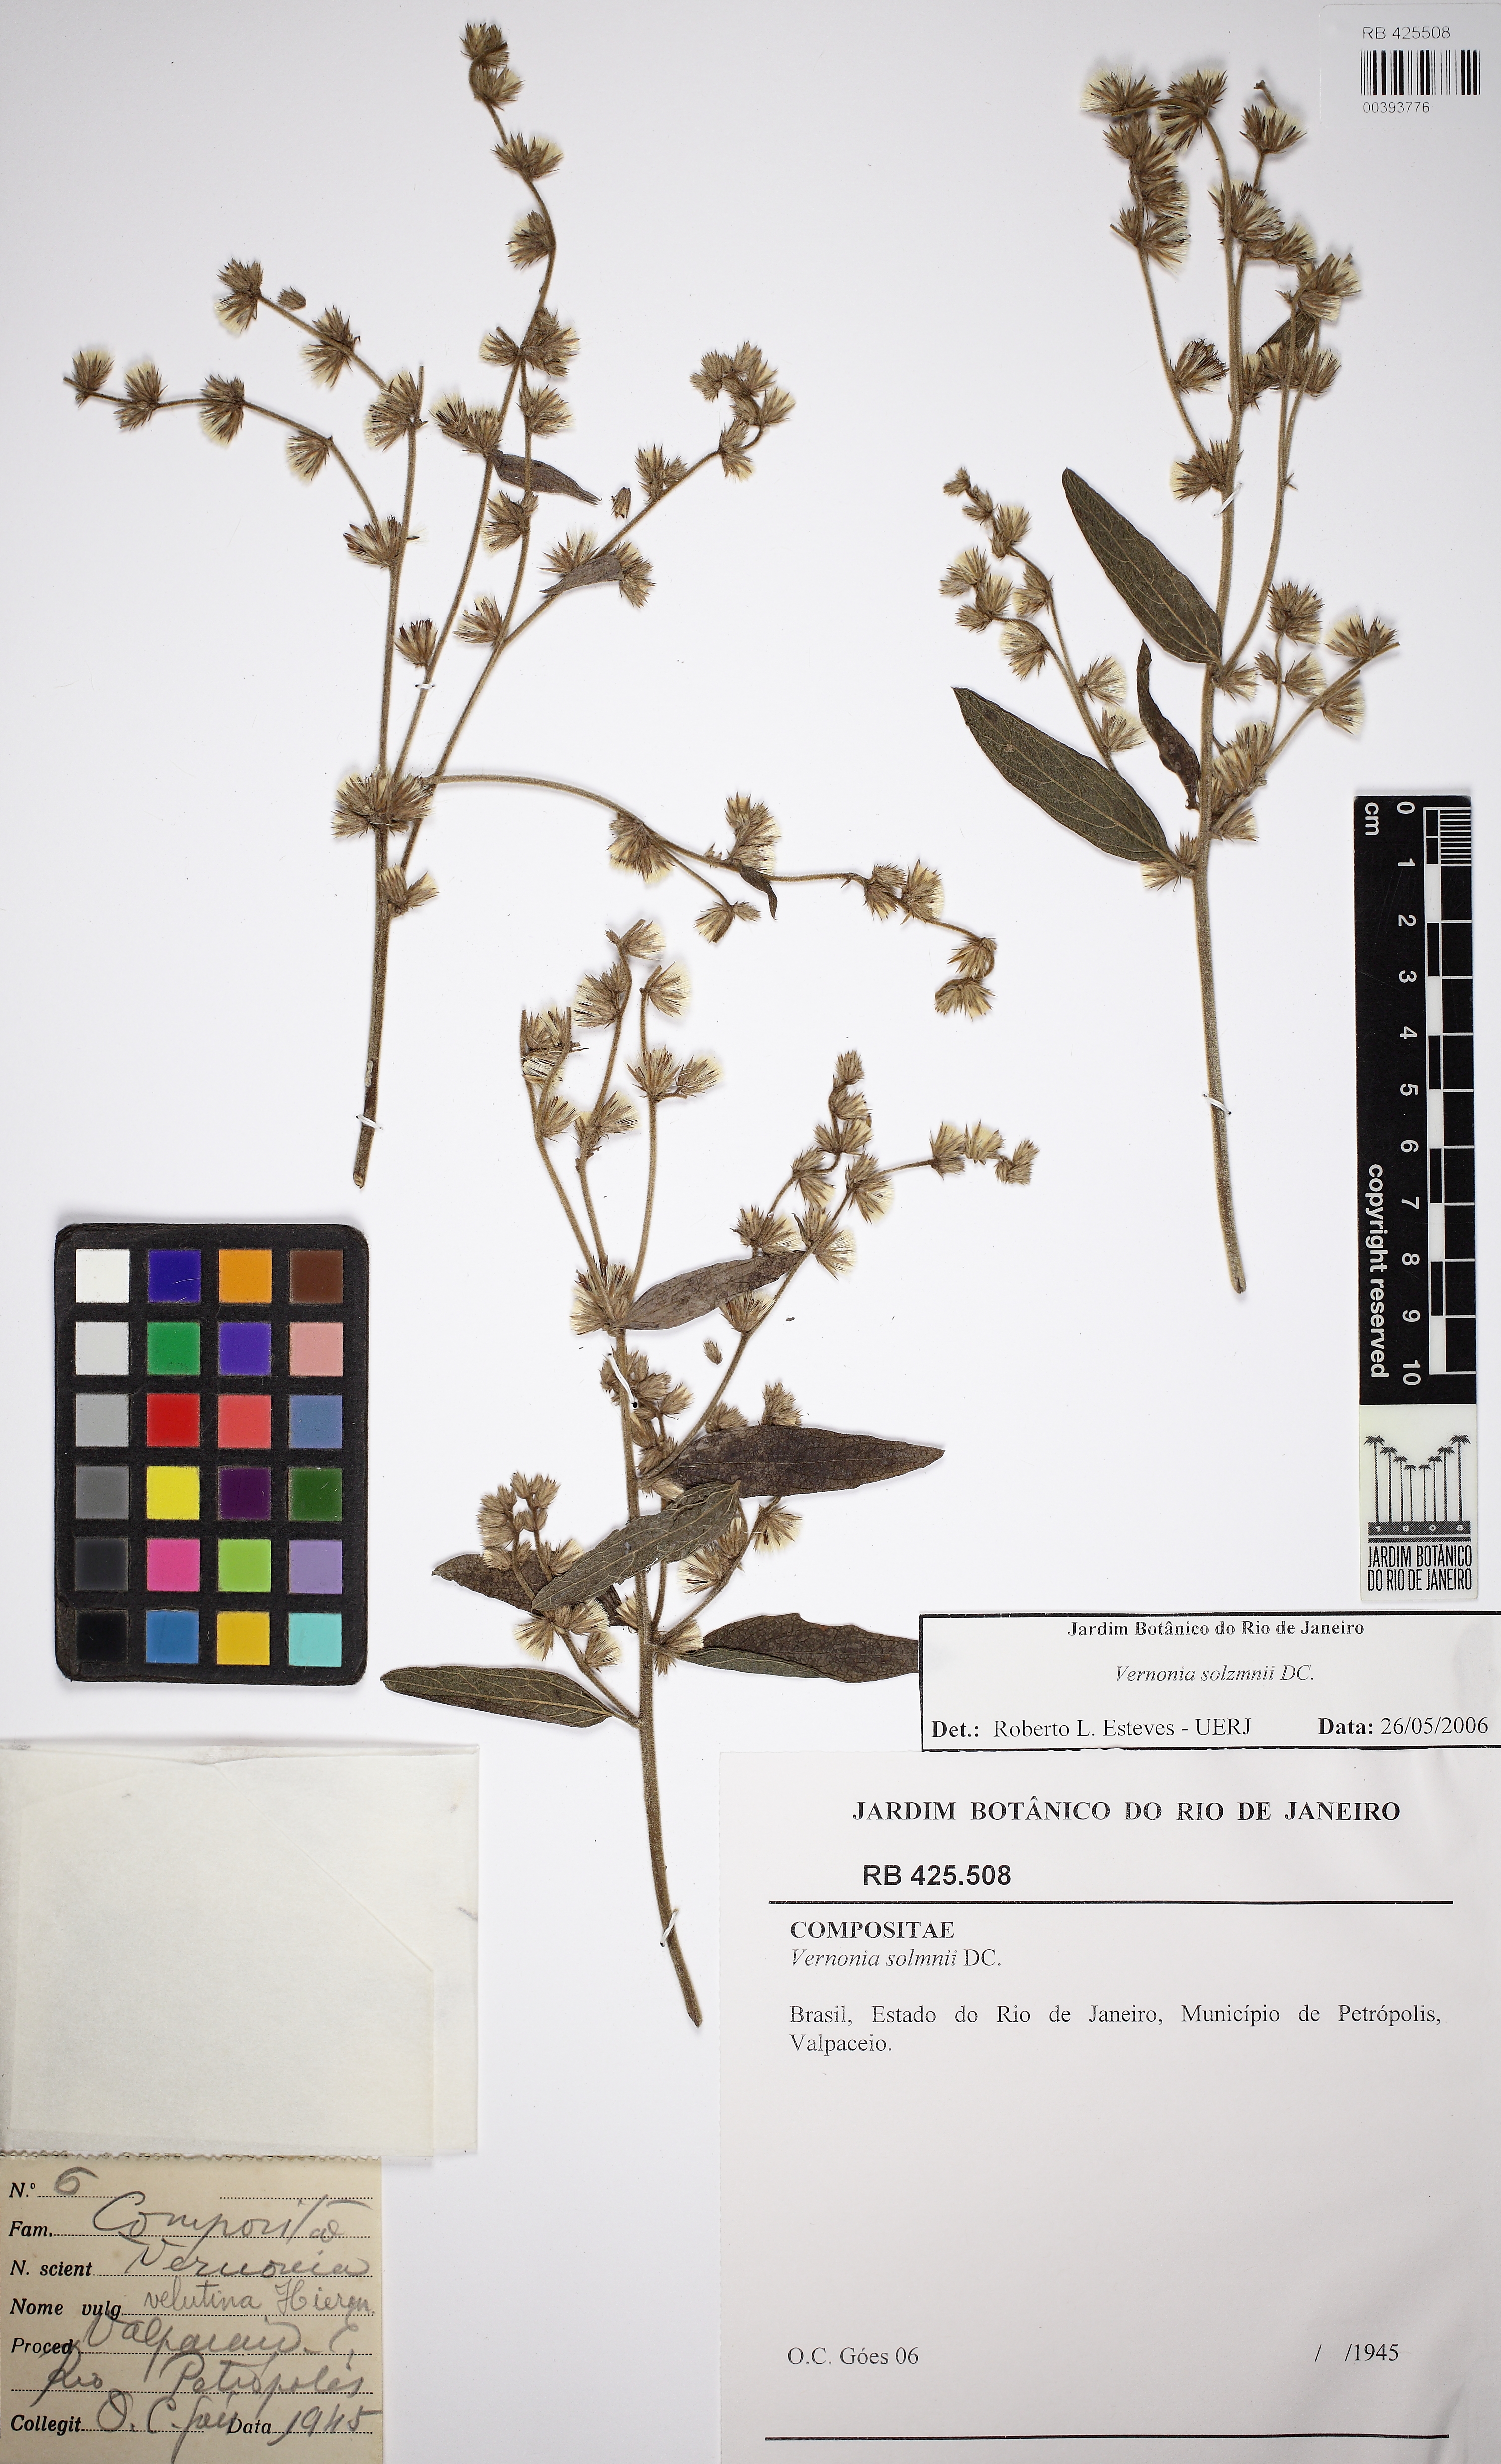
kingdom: Plantae
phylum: Tracheophyta
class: Magnoliopsida
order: Asterales
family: Asteraceae
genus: Vernonia
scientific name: Vernonia
